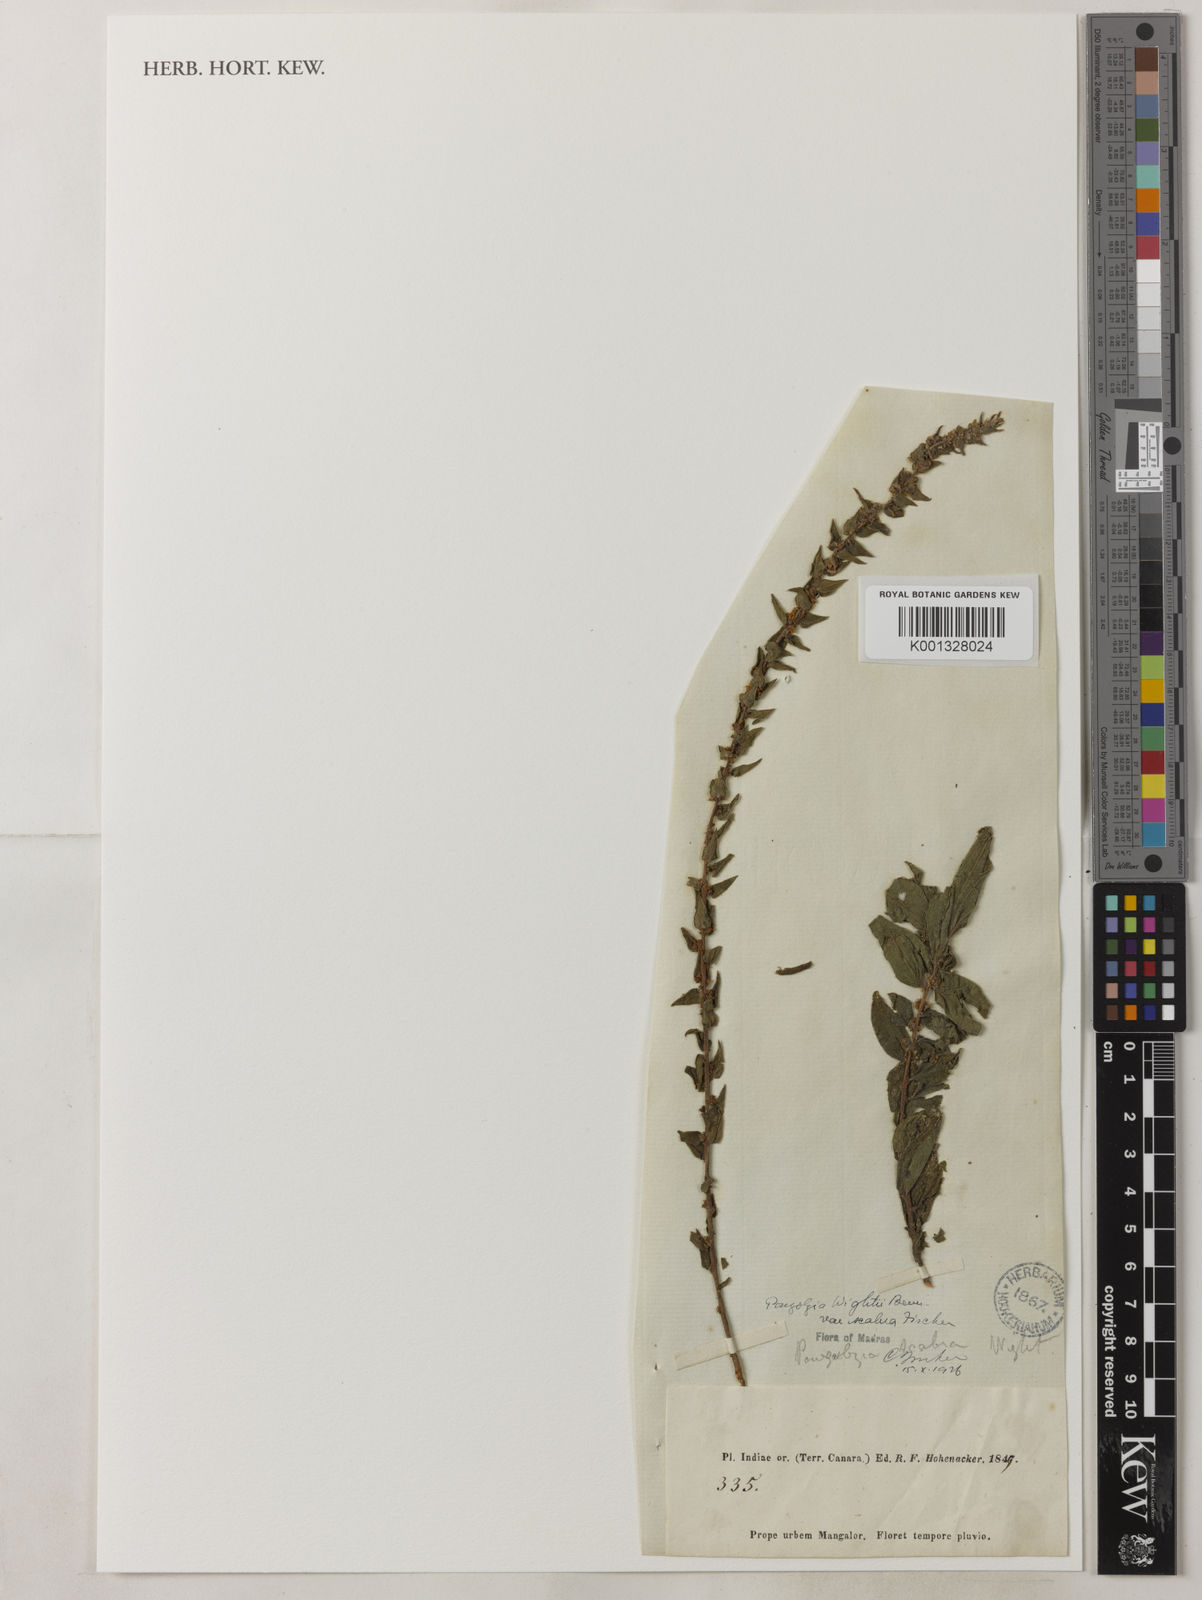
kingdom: Plantae
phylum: Tracheophyta
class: Magnoliopsida
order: Rosales
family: Urticaceae
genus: Gonostegia
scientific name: Gonostegia pentandra
